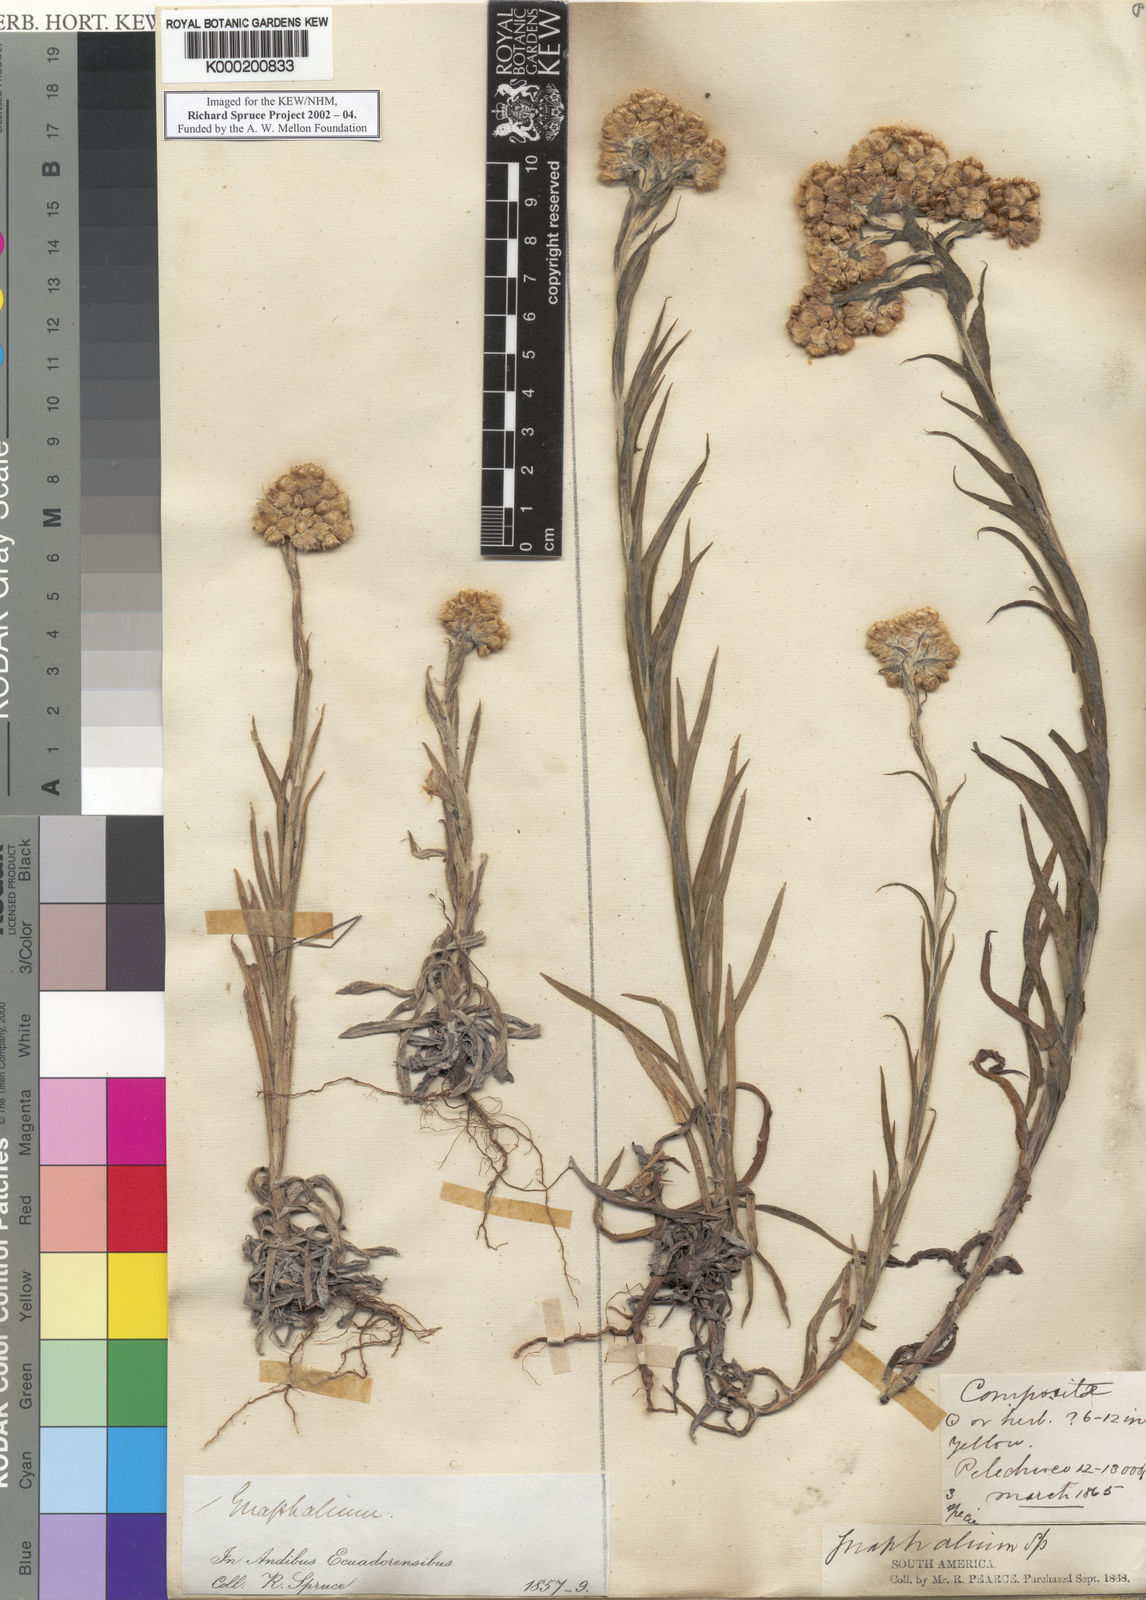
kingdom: Plantae
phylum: Tracheophyta
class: Magnoliopsida
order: Asterales
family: Asteraceae
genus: Pseudognaphalium
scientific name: Pseudognaphalium
